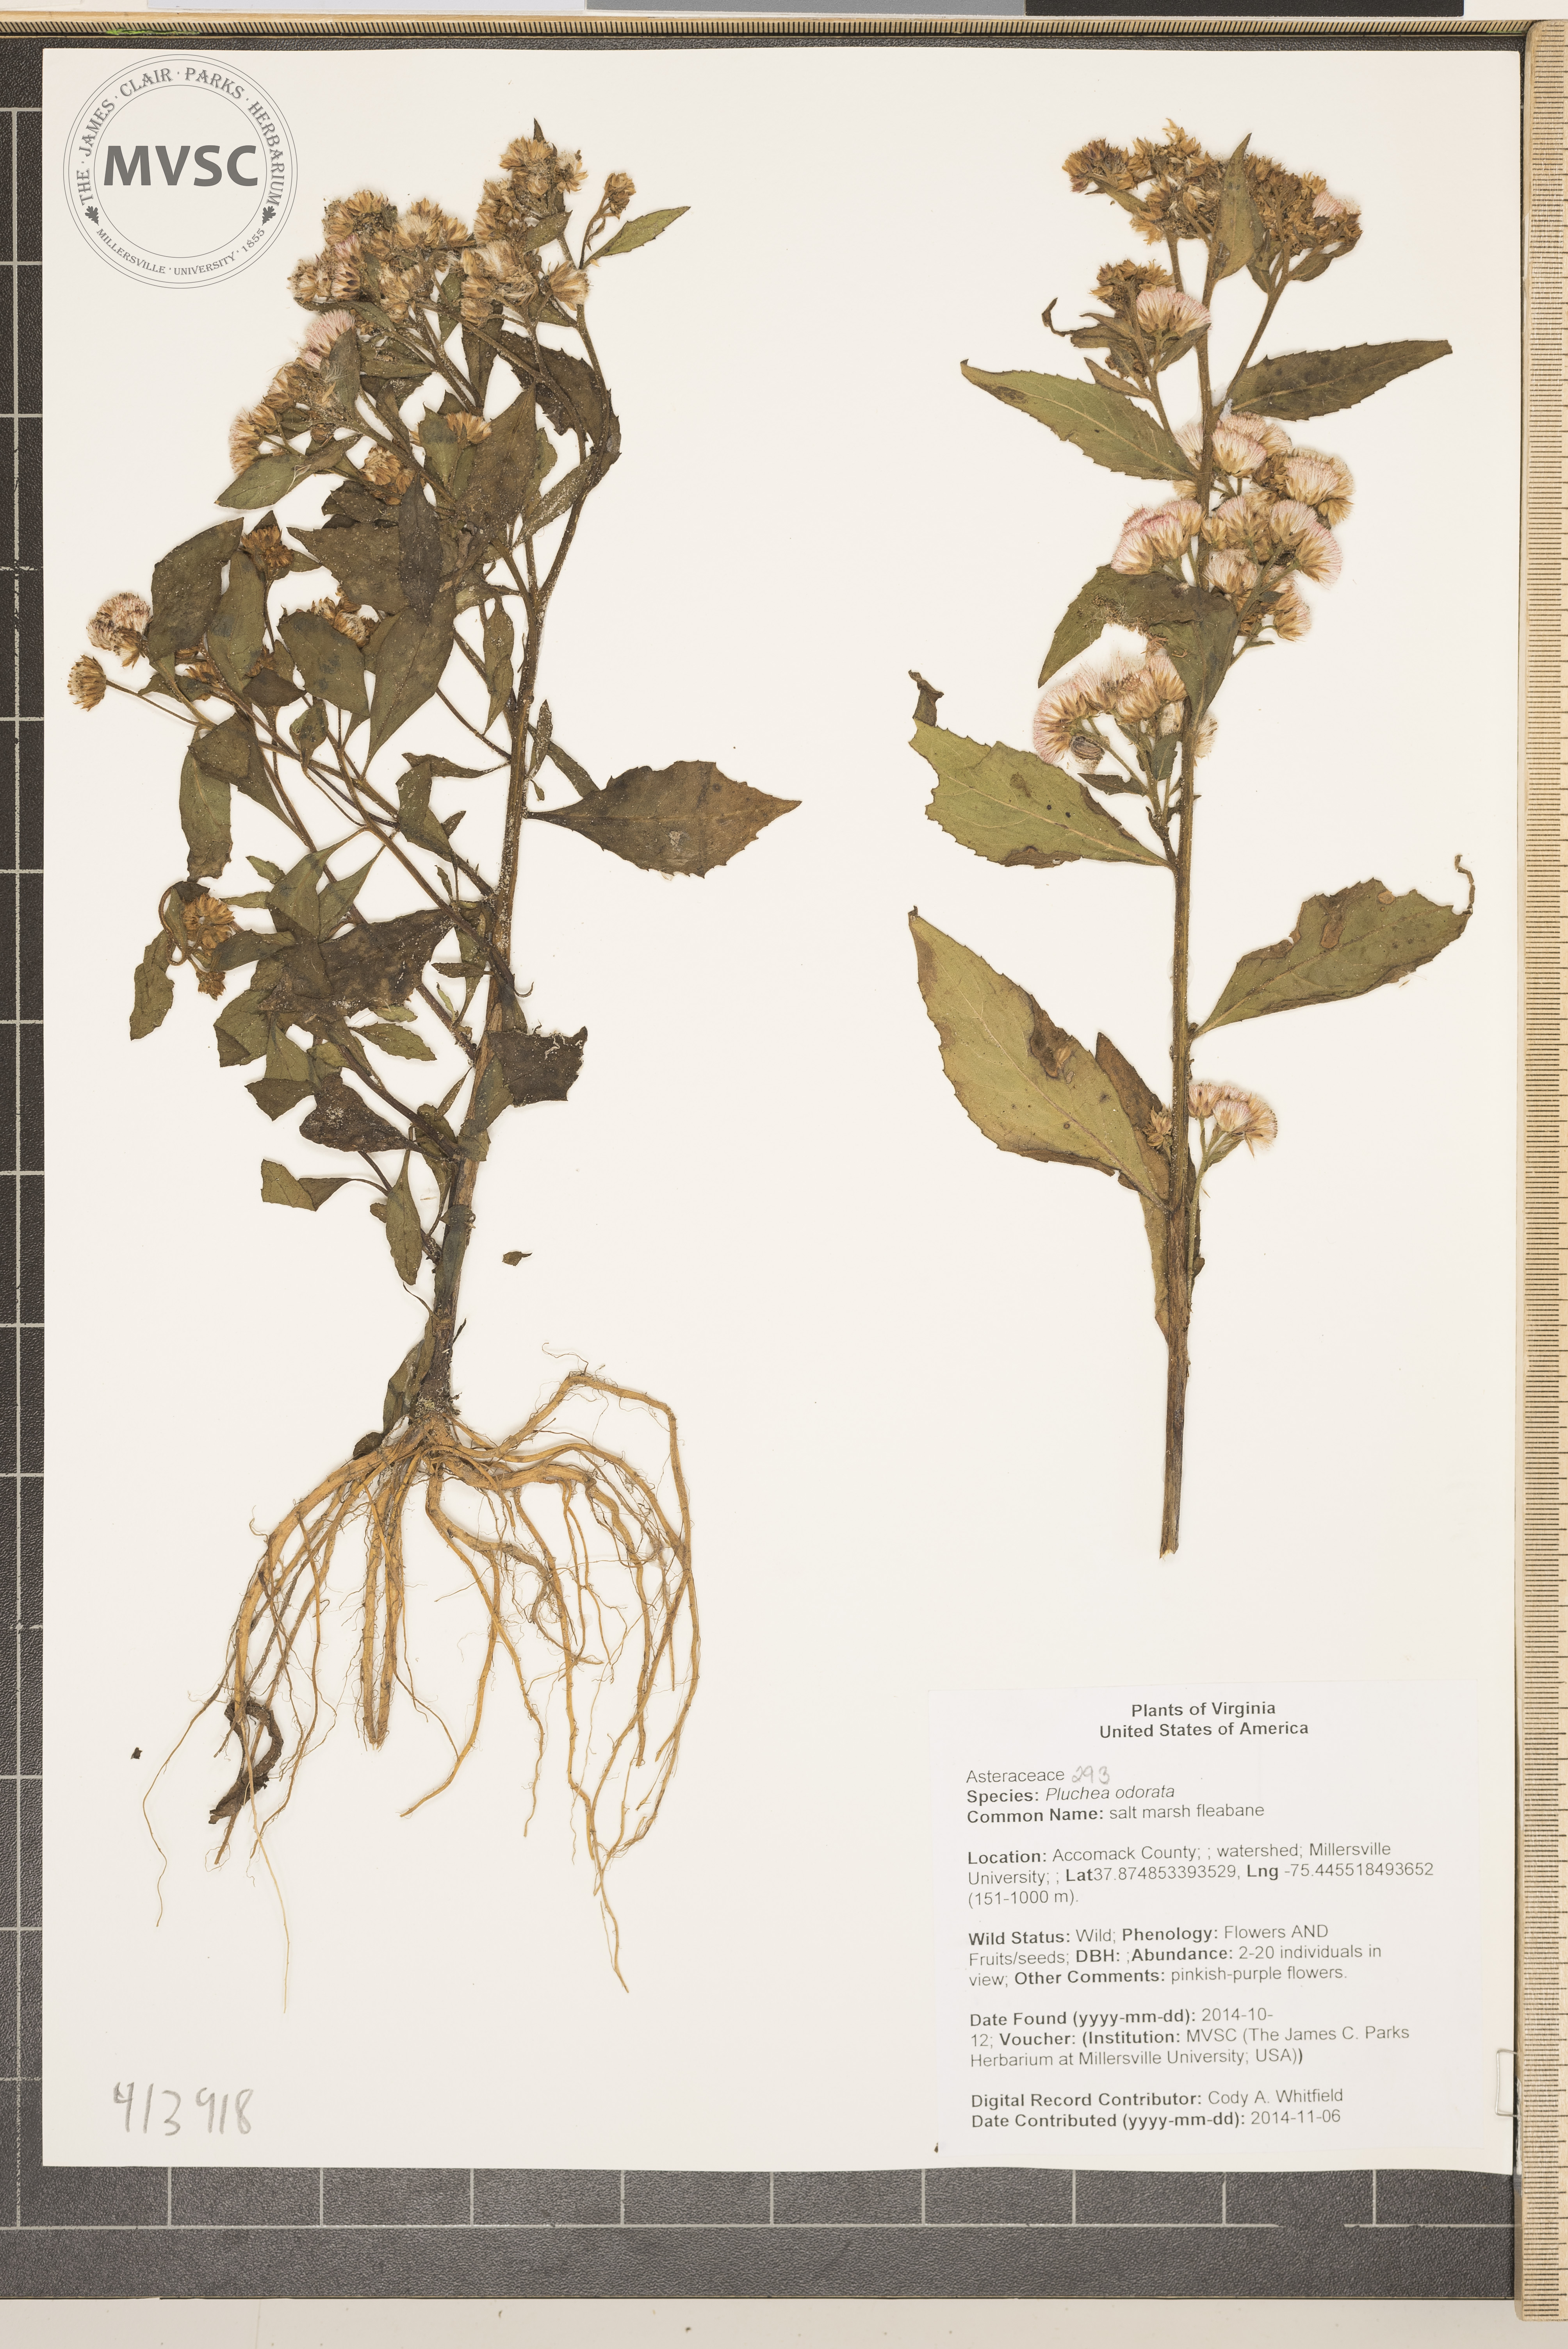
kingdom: Plantae
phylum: Tracheophyta
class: Magnoliopsida
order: Asterales
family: Asteraceae
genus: Pluchea
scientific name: Pluchea odorata
